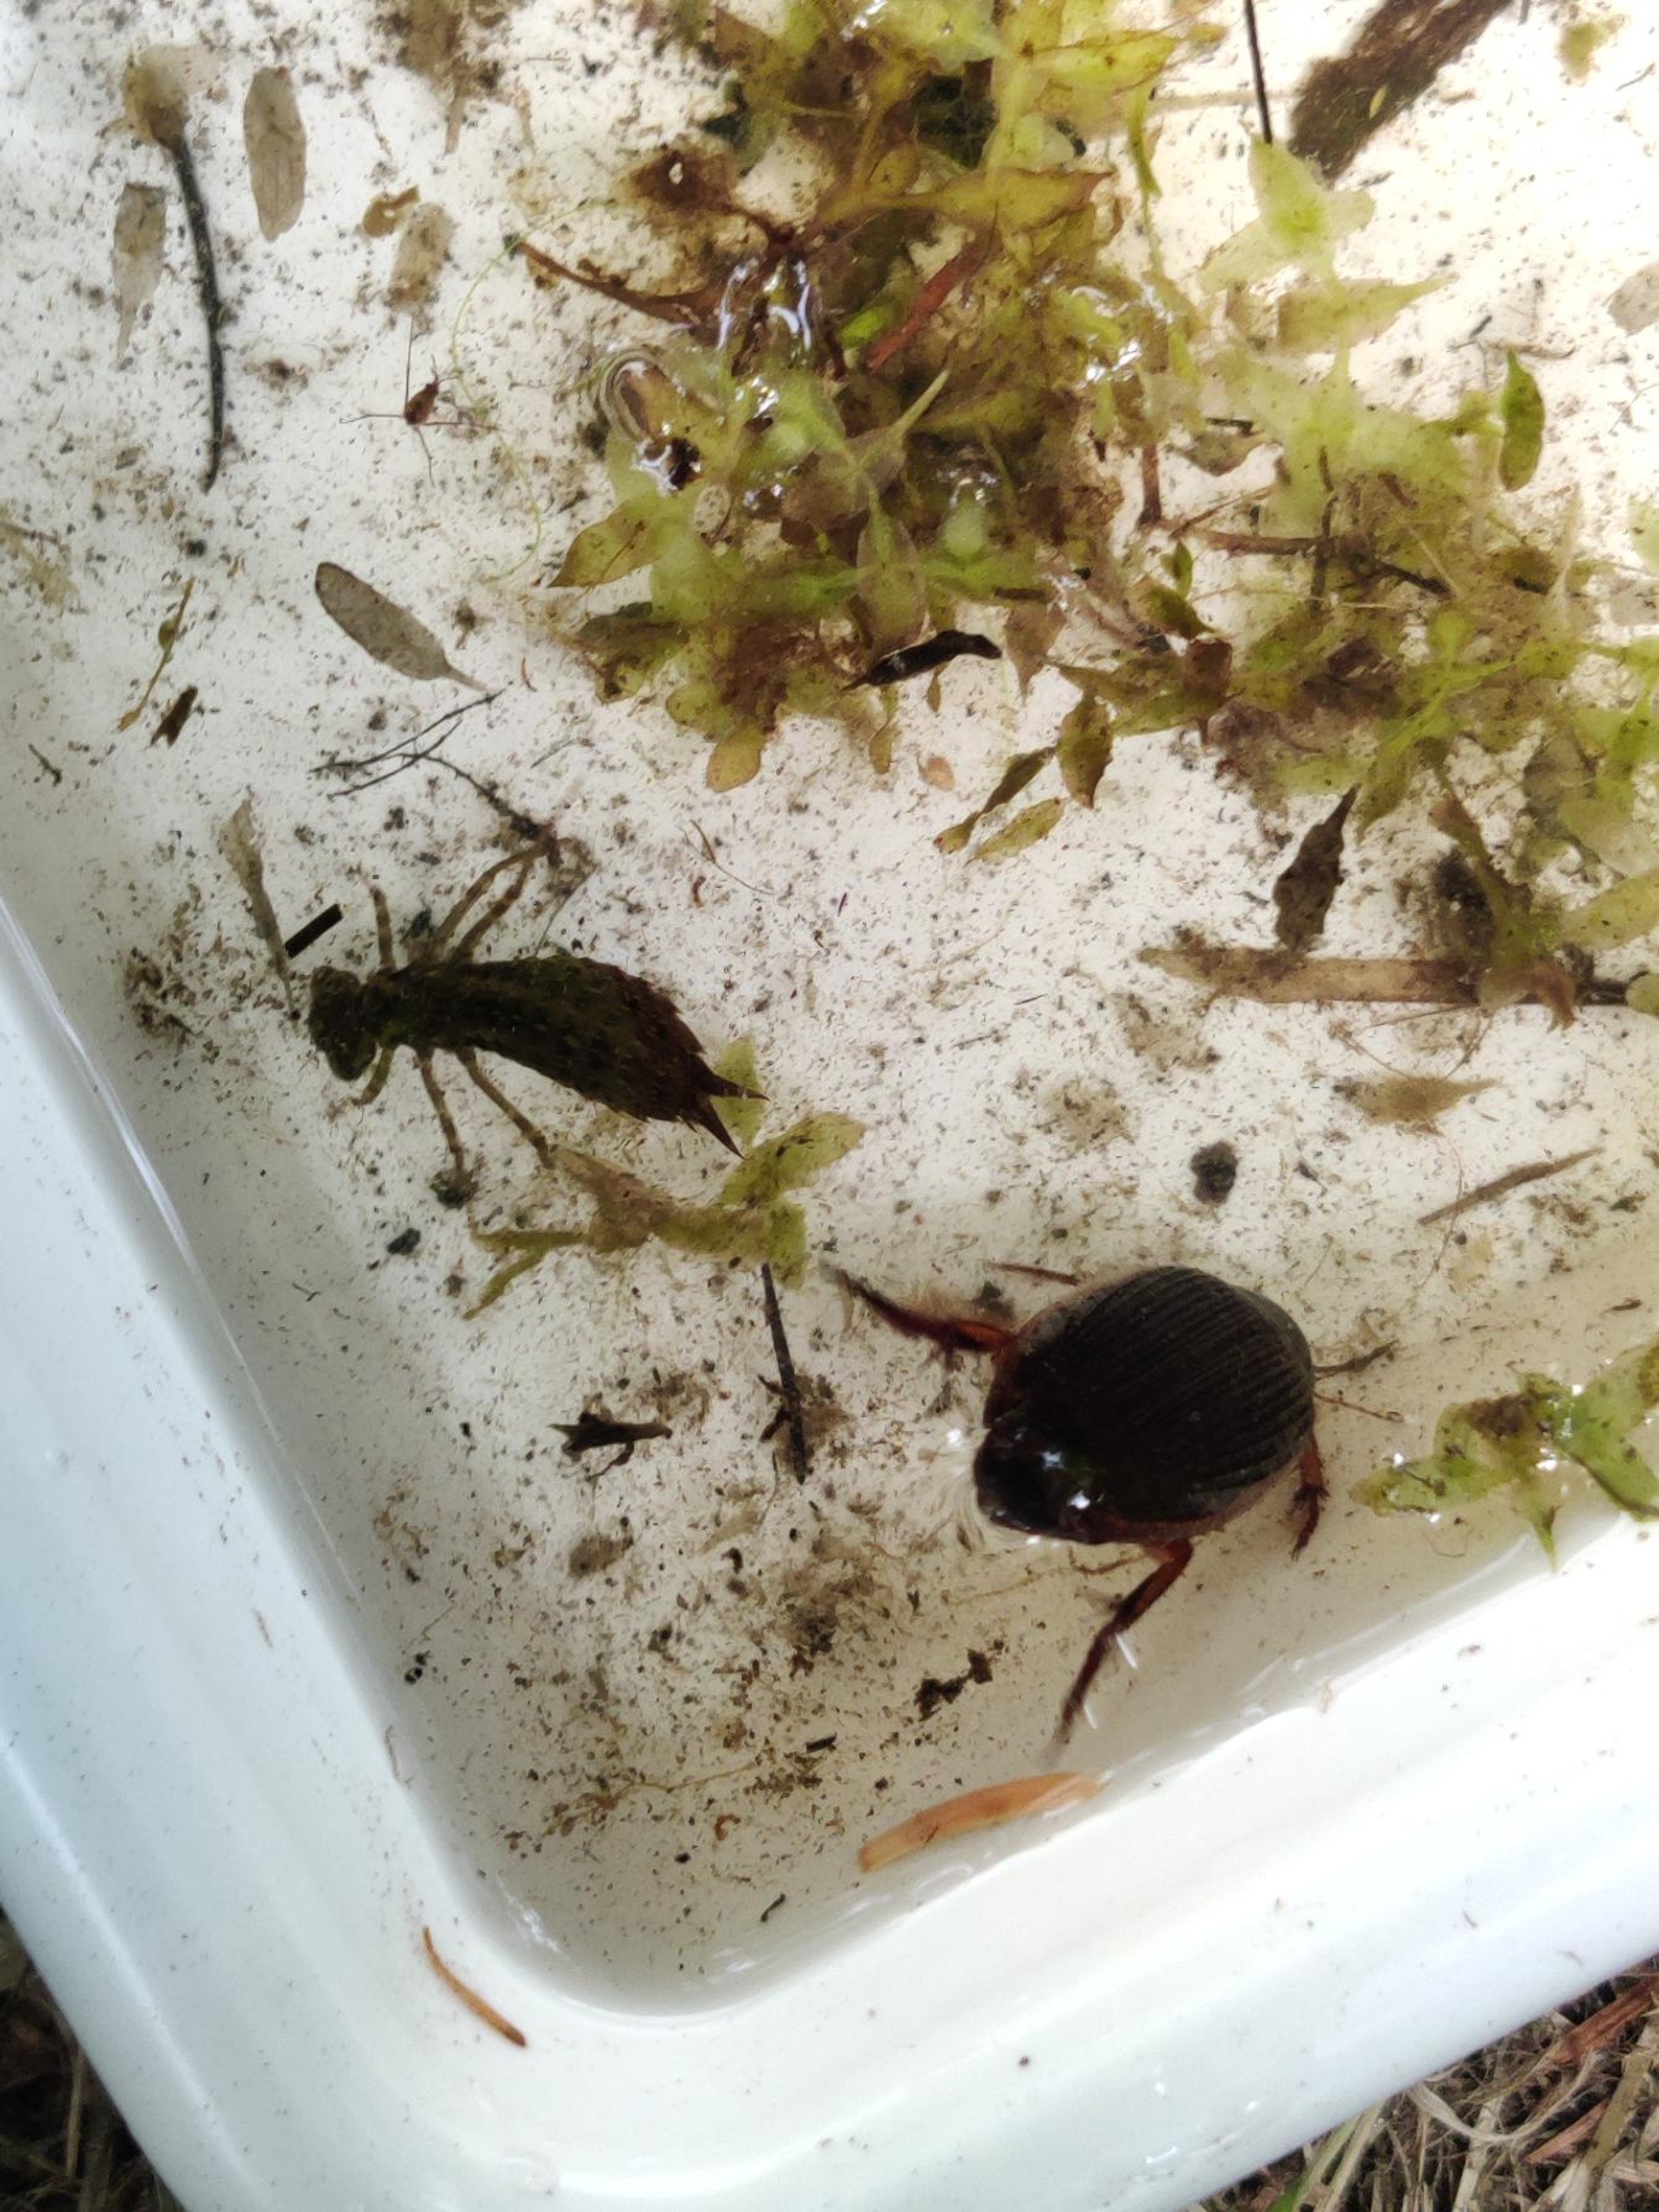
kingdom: Animalia
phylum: Arthropoda
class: Insecta
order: Coleoptera
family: Dytiscidae
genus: Dytiscus
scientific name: Dytiscus
